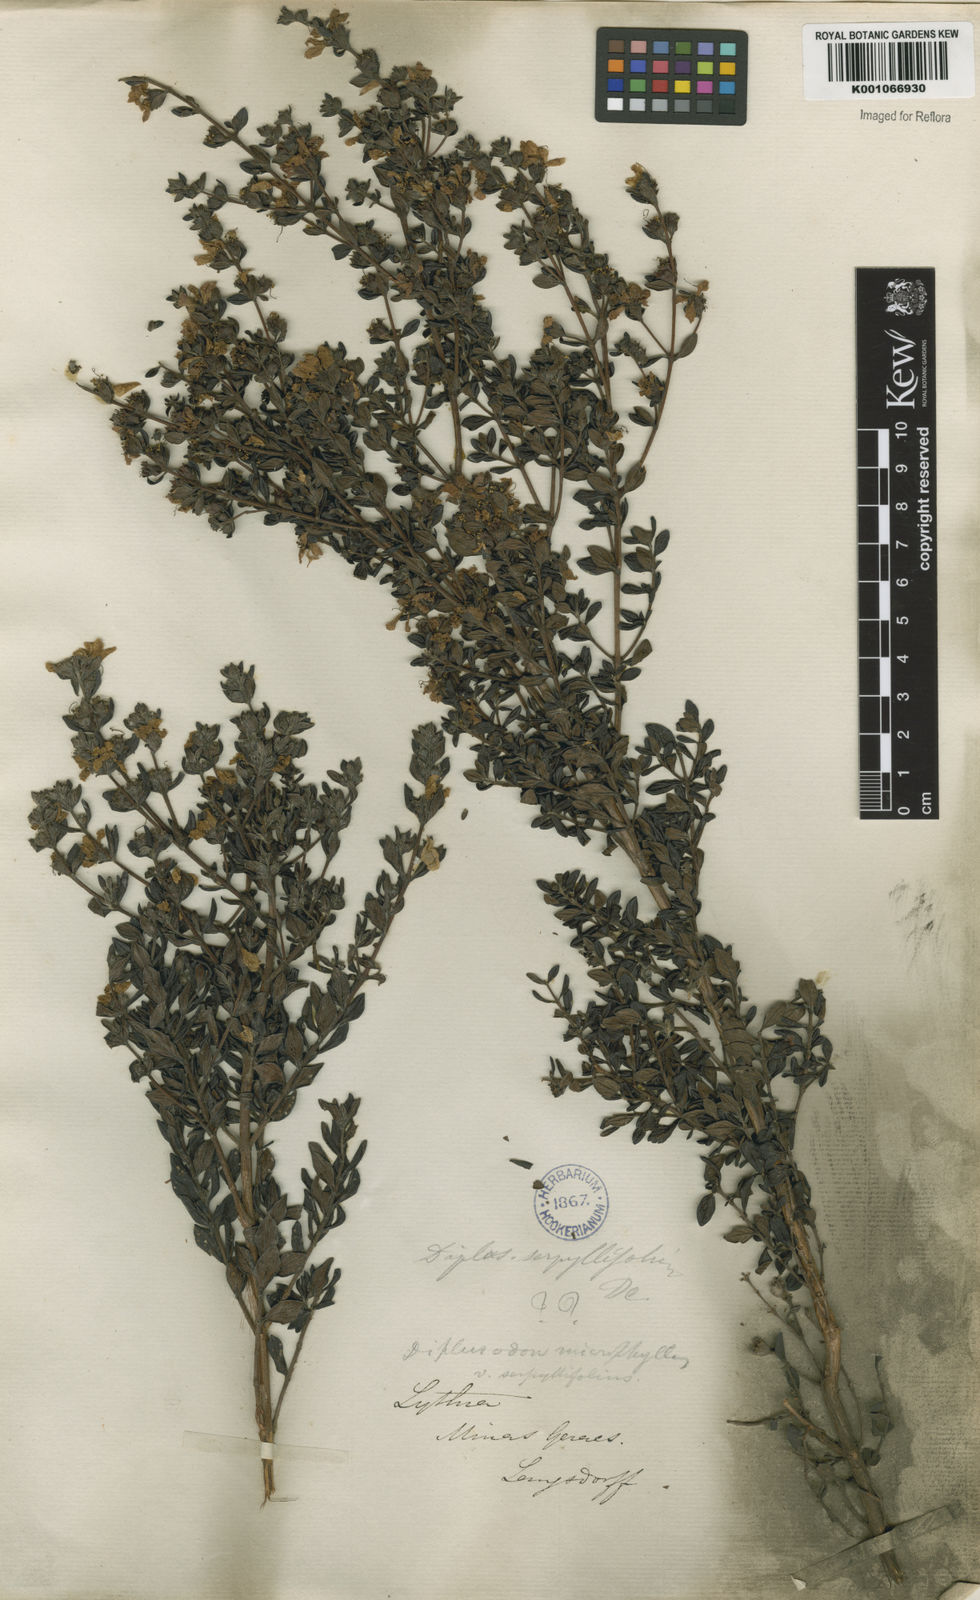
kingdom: Plantae
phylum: Tracheophyta
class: Magnoliopsida
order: Myrtales
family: Lythraceae
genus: Diplusodon
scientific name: Diplusodon microphyllus
